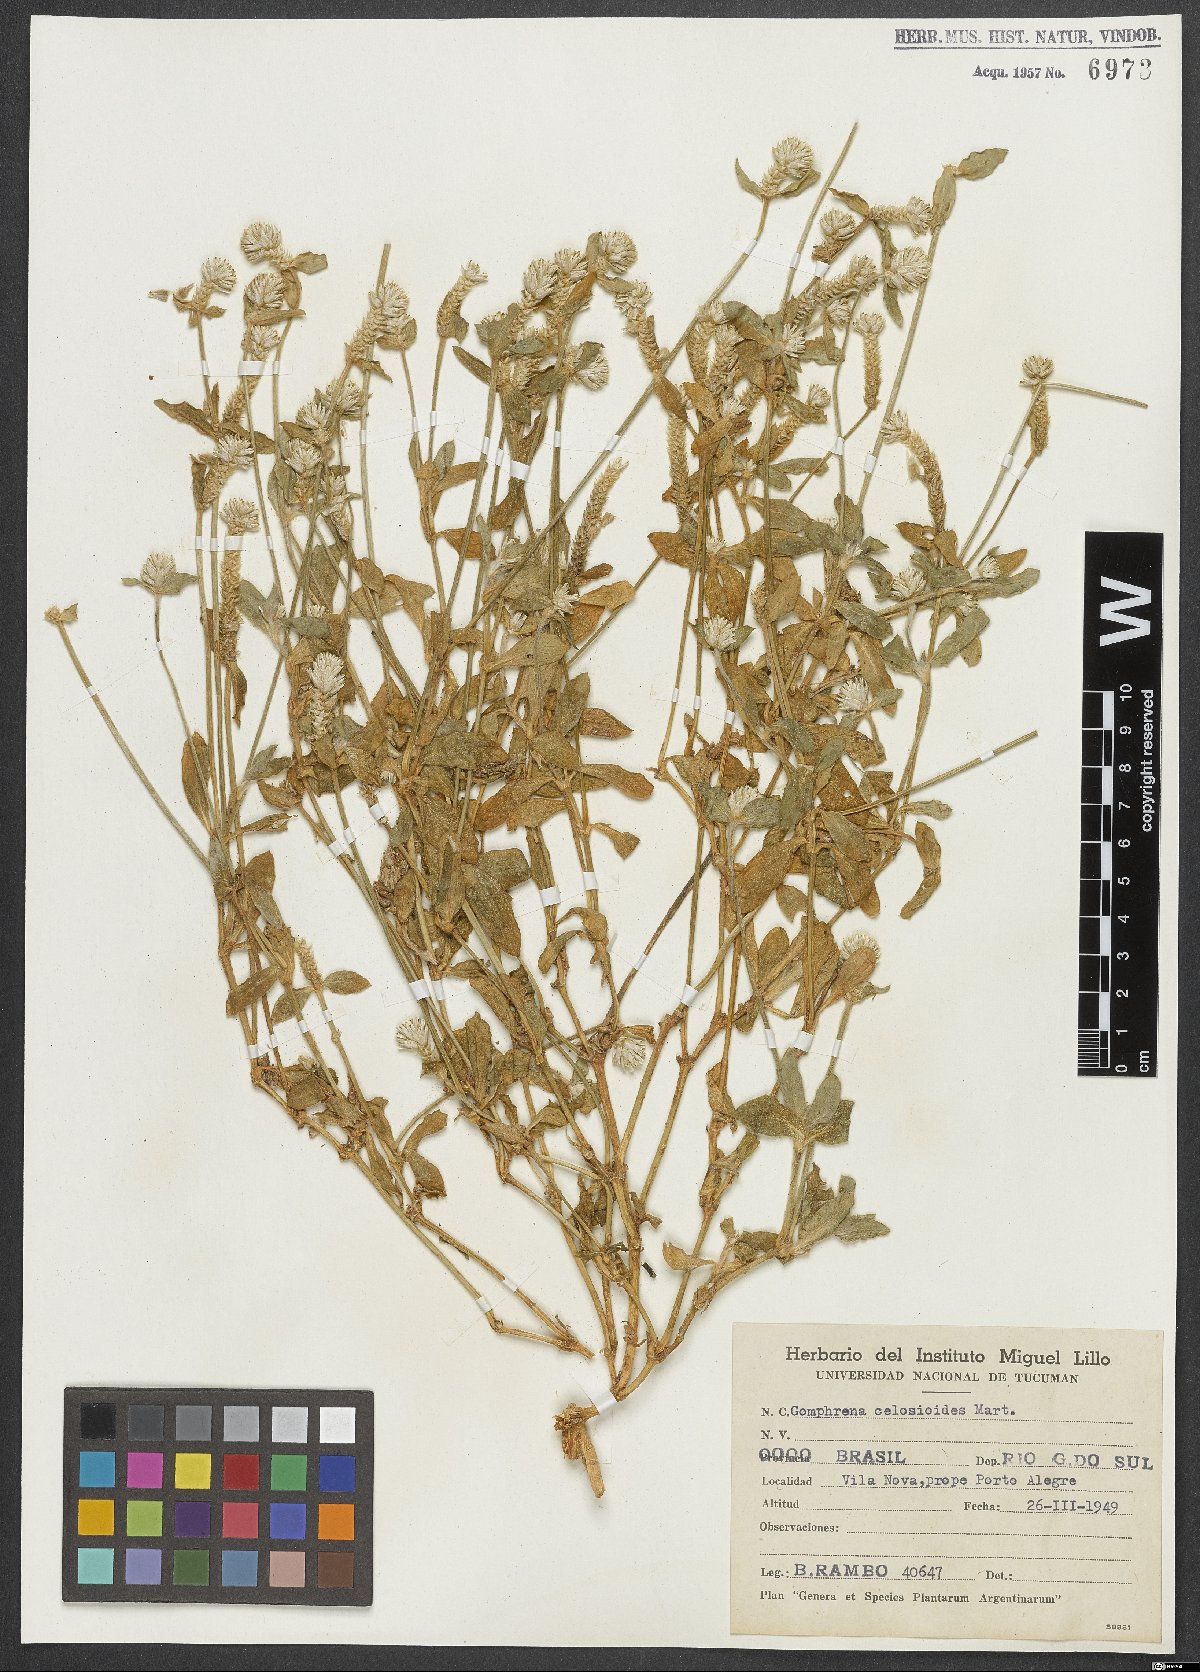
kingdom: Plantae
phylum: Tracheophyta
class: Magnoliopsida
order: Caryophyllales
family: Amaranthaceae
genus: Gomphrena
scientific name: Gomphrena celosioides
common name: Gomphrena-weed
